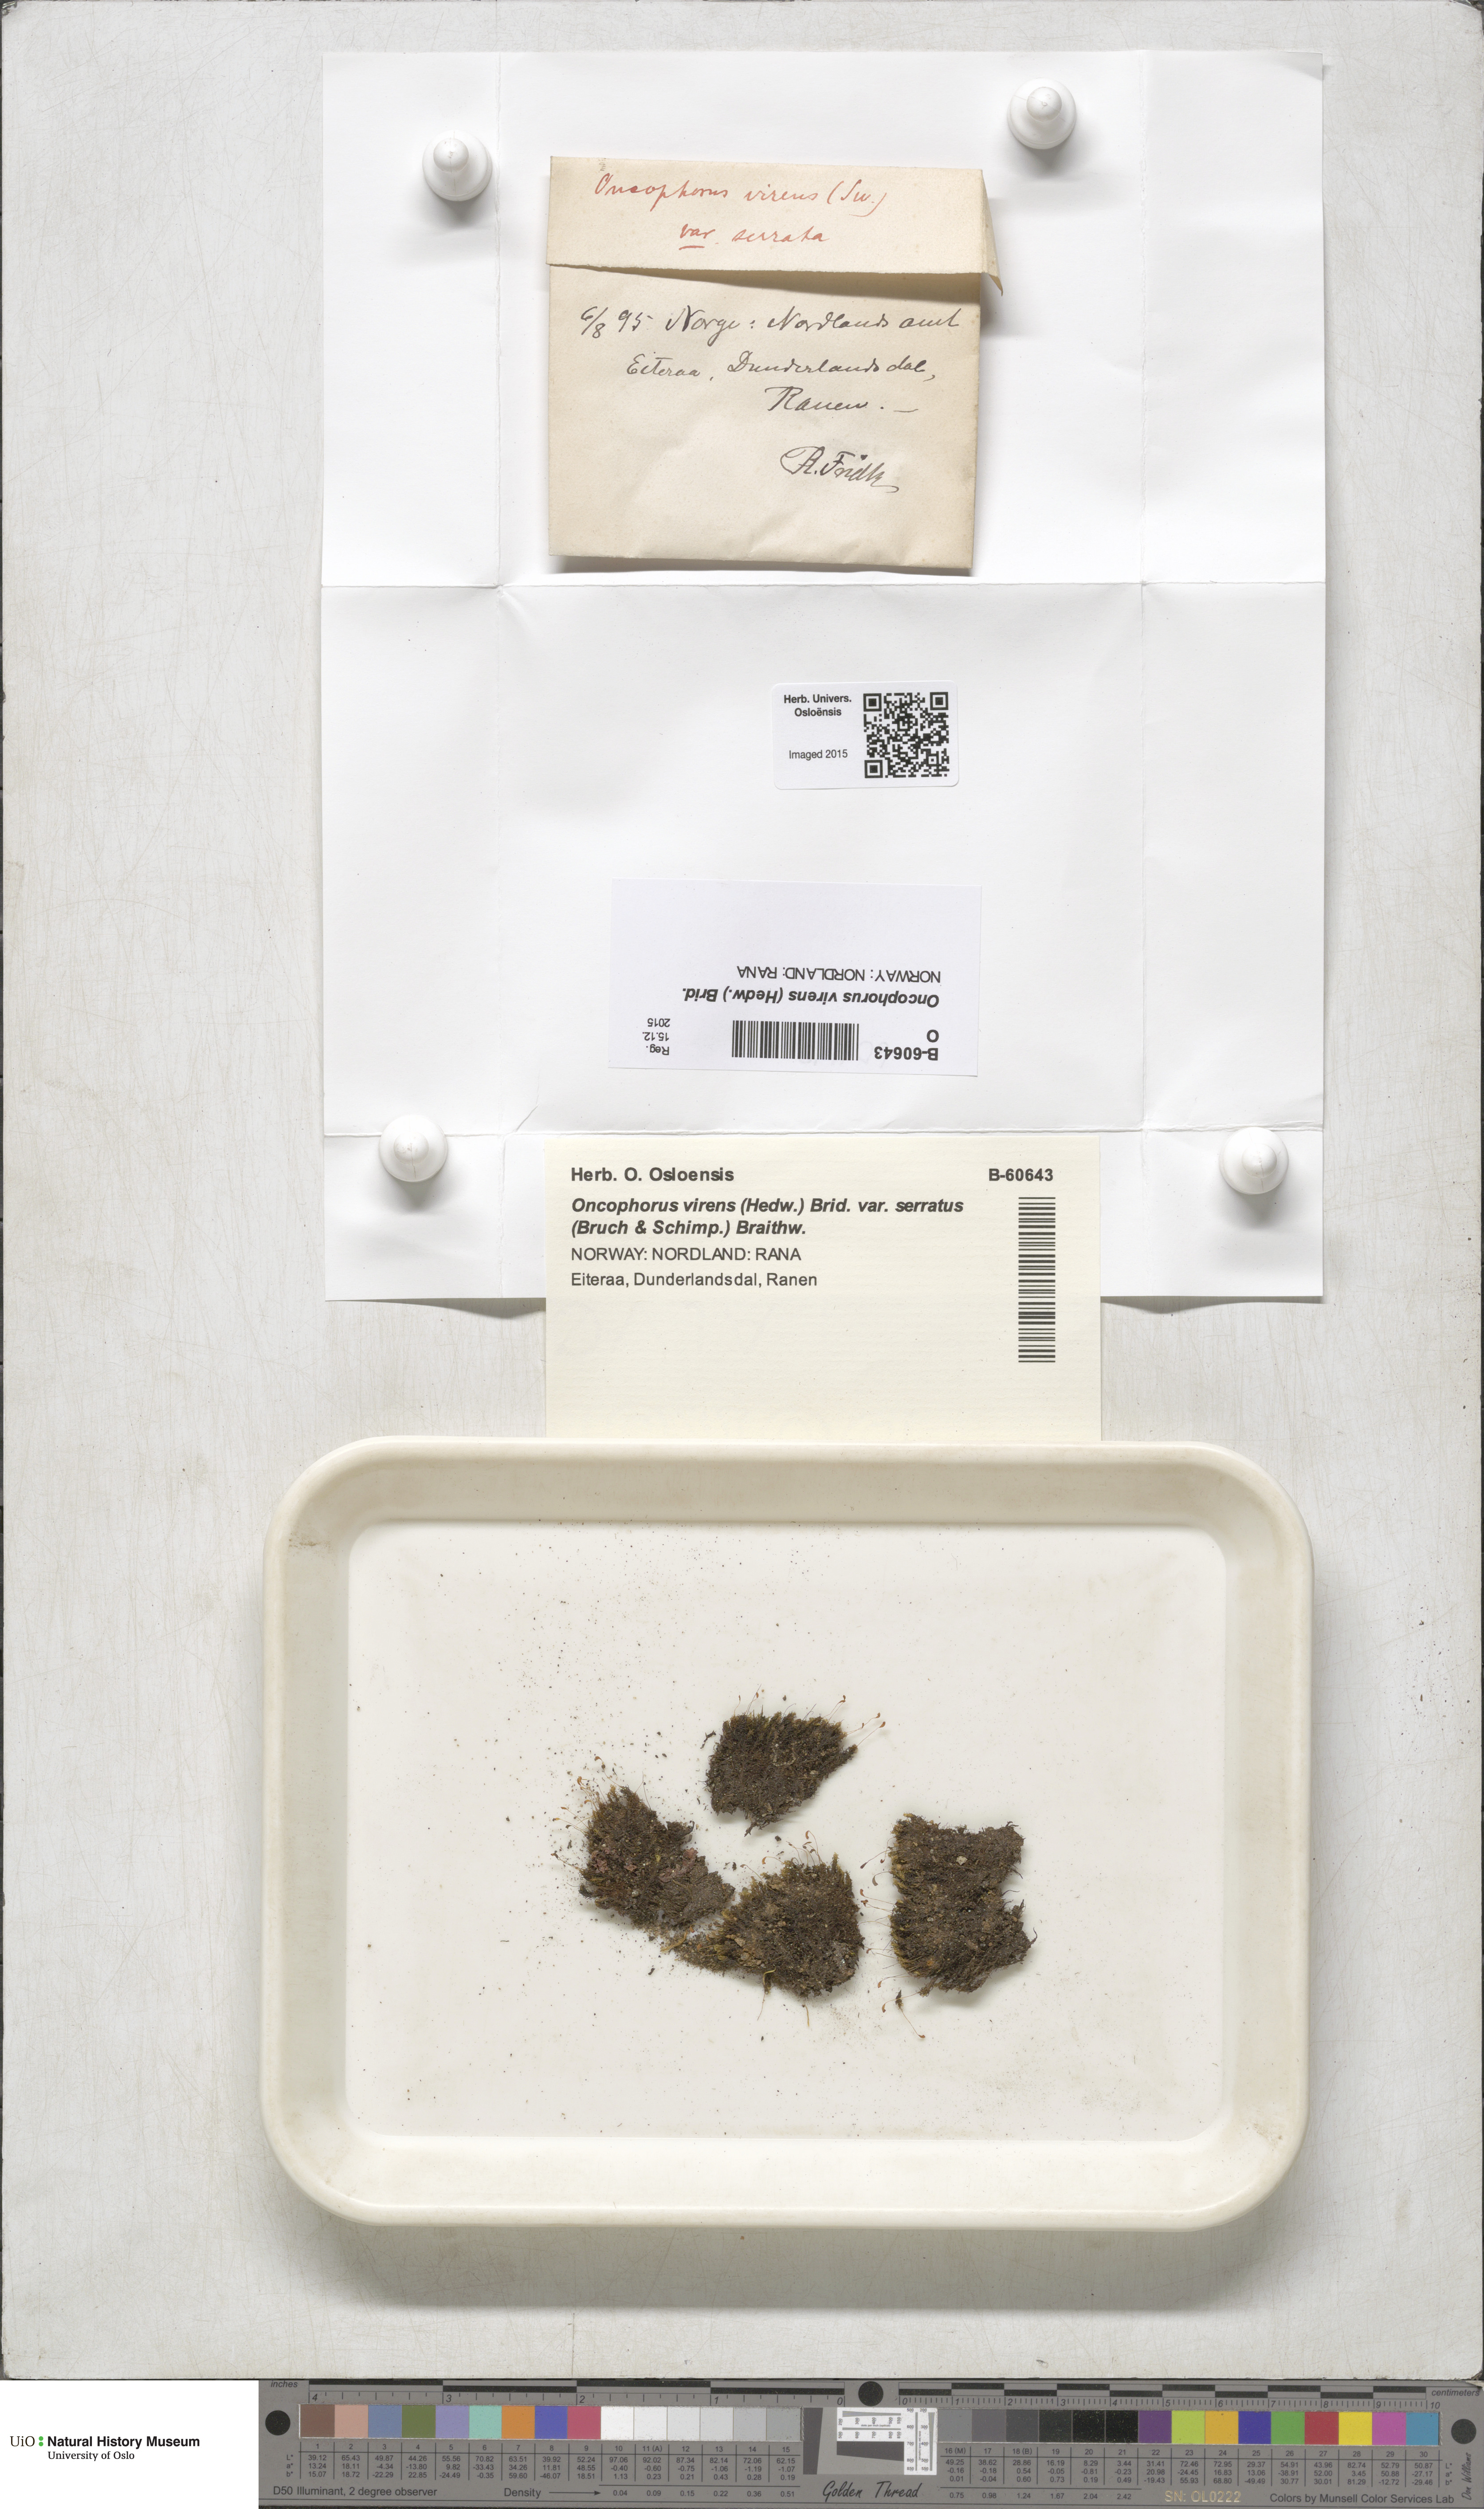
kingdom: Plantae
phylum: Bryophyta
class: Bryopsida
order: Dicranales
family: Rhabdoweisiaceae
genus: Oncophorus
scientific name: Oncophorus virens
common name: Green spur moss
